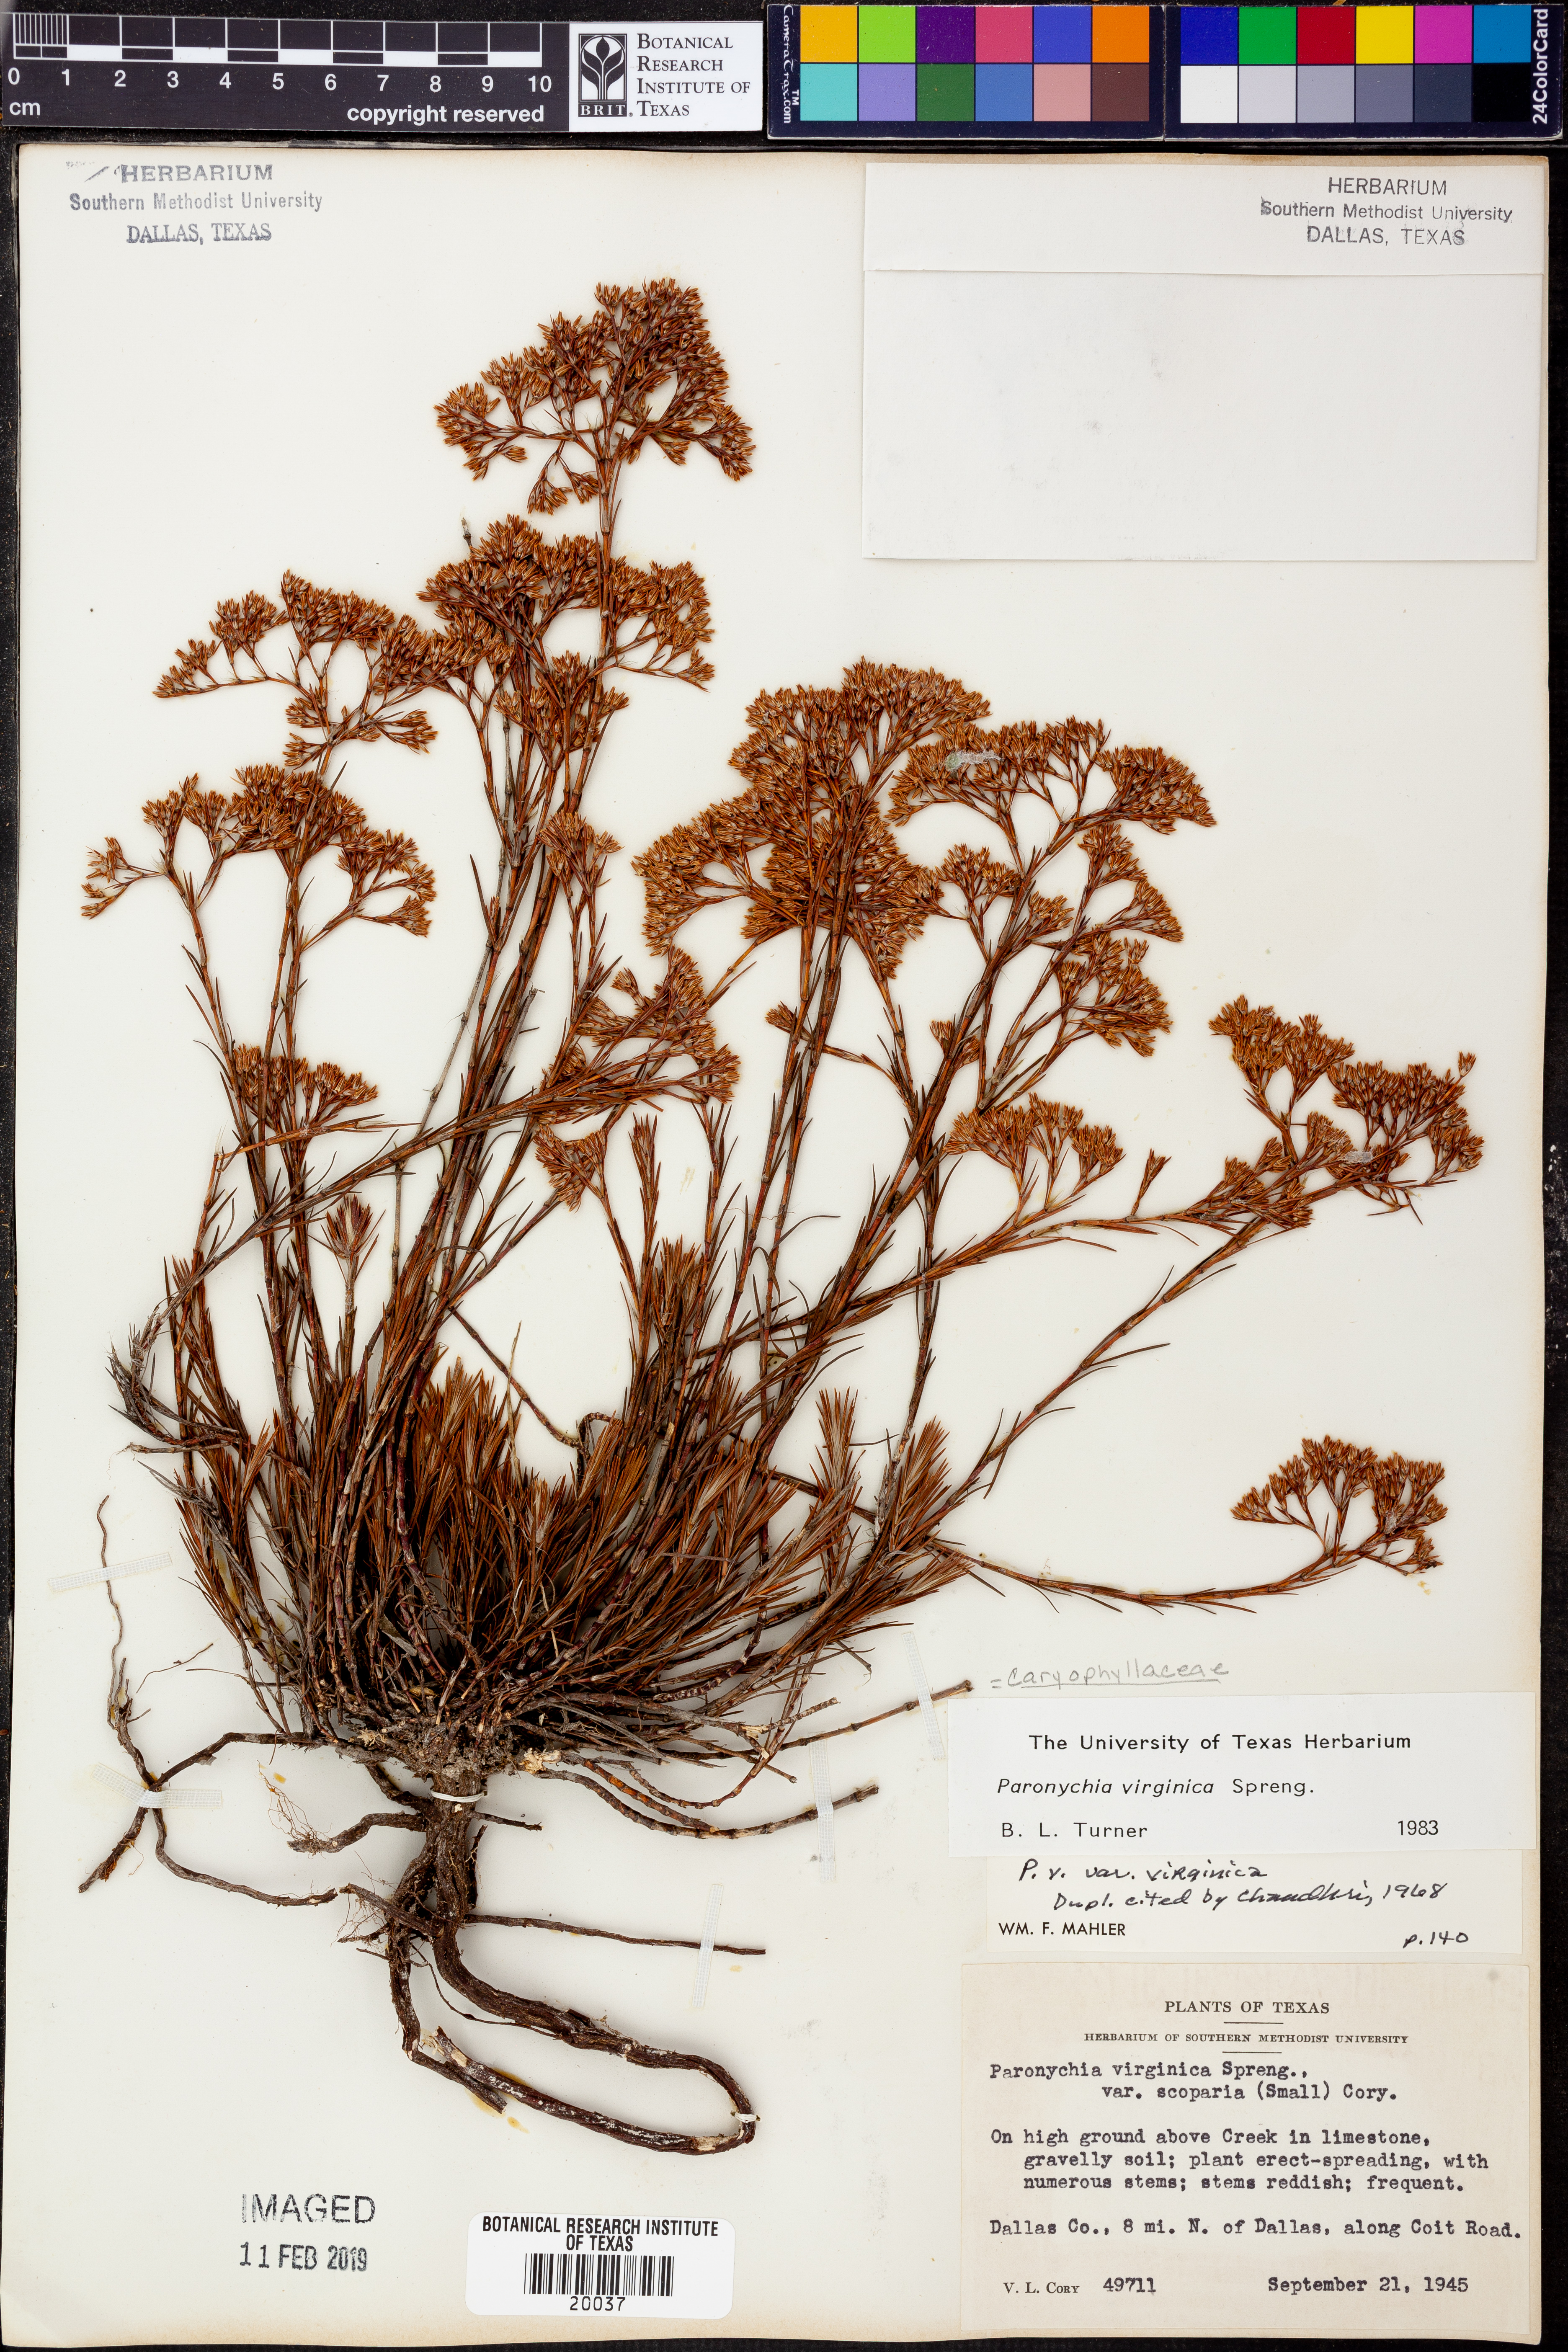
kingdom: Plantae
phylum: Tracheophyta
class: Magnoliopsida
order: Caryophyllales
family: Caryophyllaceae
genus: Paronychia
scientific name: Paronychia virginica
